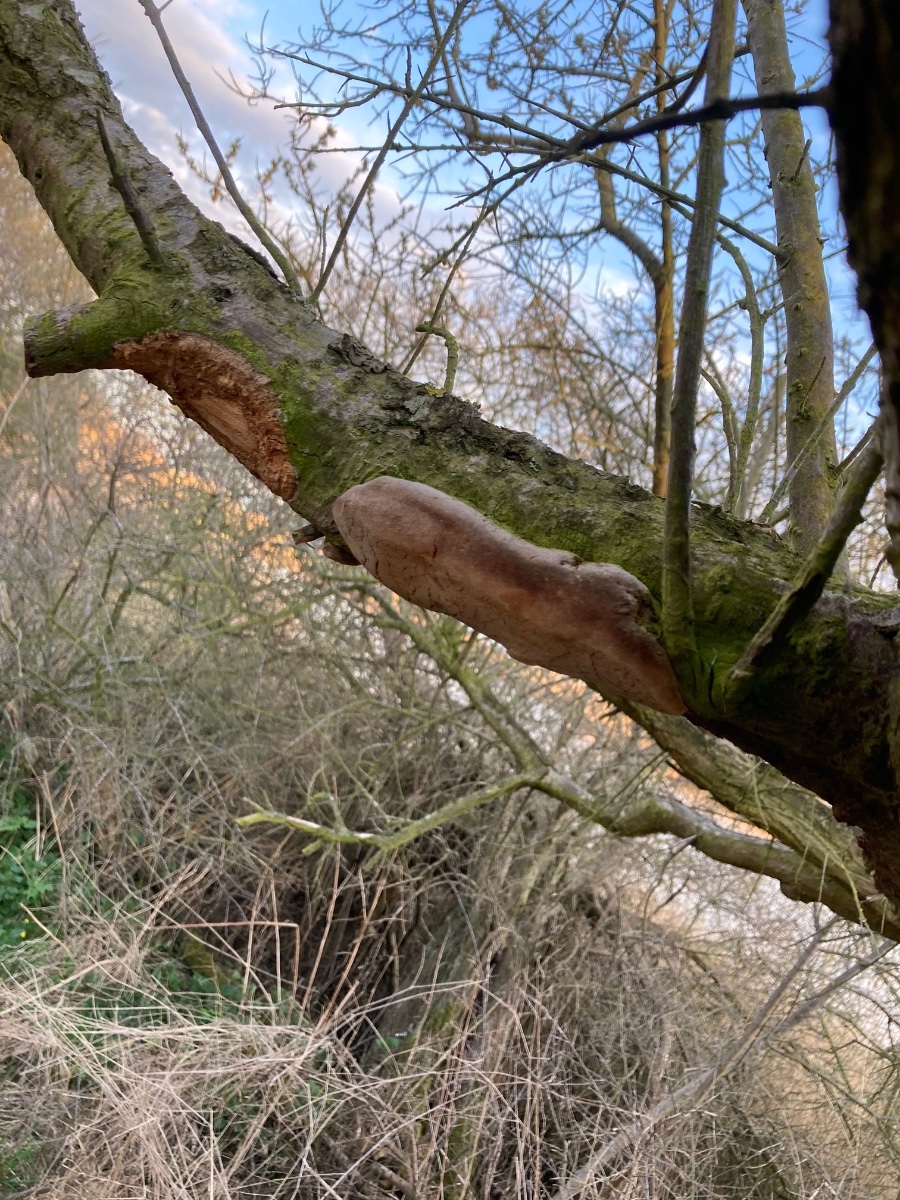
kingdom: Fungi
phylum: Basidiomycota
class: Agaricomycetes
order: Hymenochaetales
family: Hymenochaetaceae
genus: Fomitiporia
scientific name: Fomitiporia hippophaeicola
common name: havtorn-ildporesvamp
